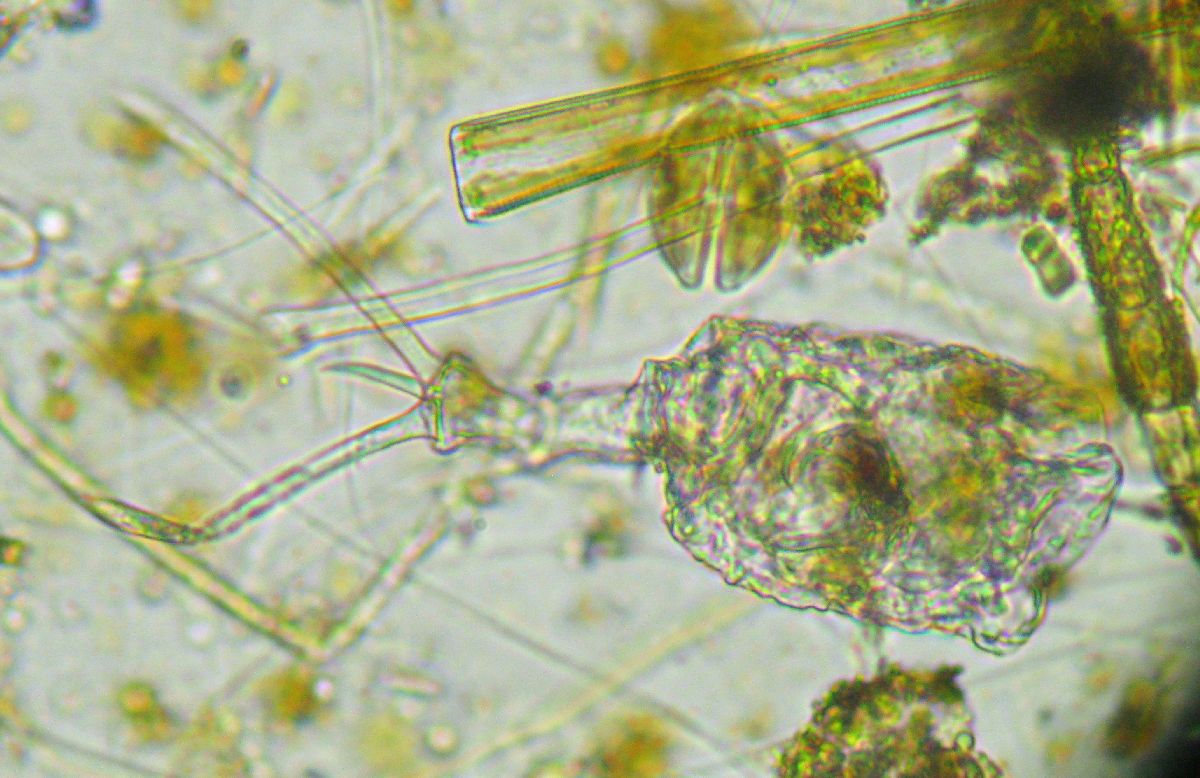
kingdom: Animalia
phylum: Rotifera
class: Eurotatoria
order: Ploima
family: Trichotriidae
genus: Trichotria
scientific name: Trichotria pocillum
